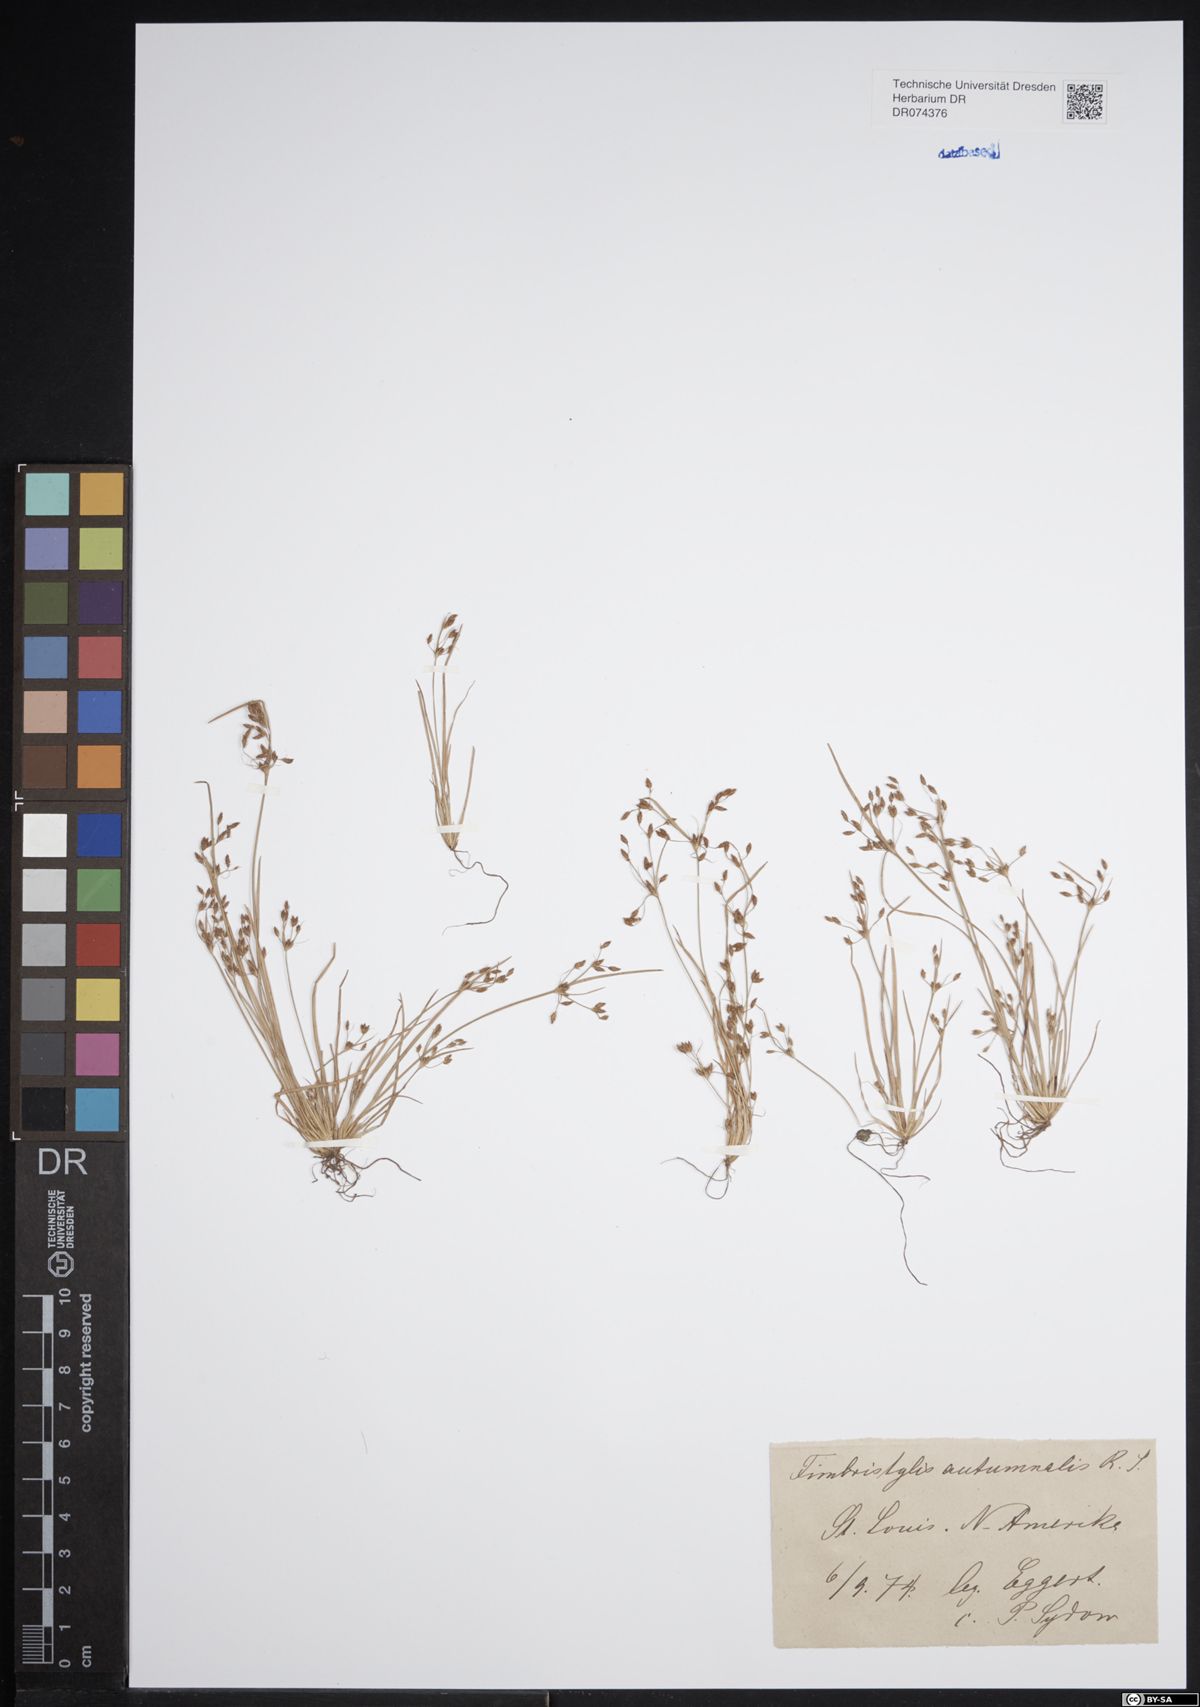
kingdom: Plantae
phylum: Tracheophyta
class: Liliopsida
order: Poales
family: Cyperaceae
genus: Fimbristylis
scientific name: Fimbristylis autumnalis
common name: Slender fimbristylis
